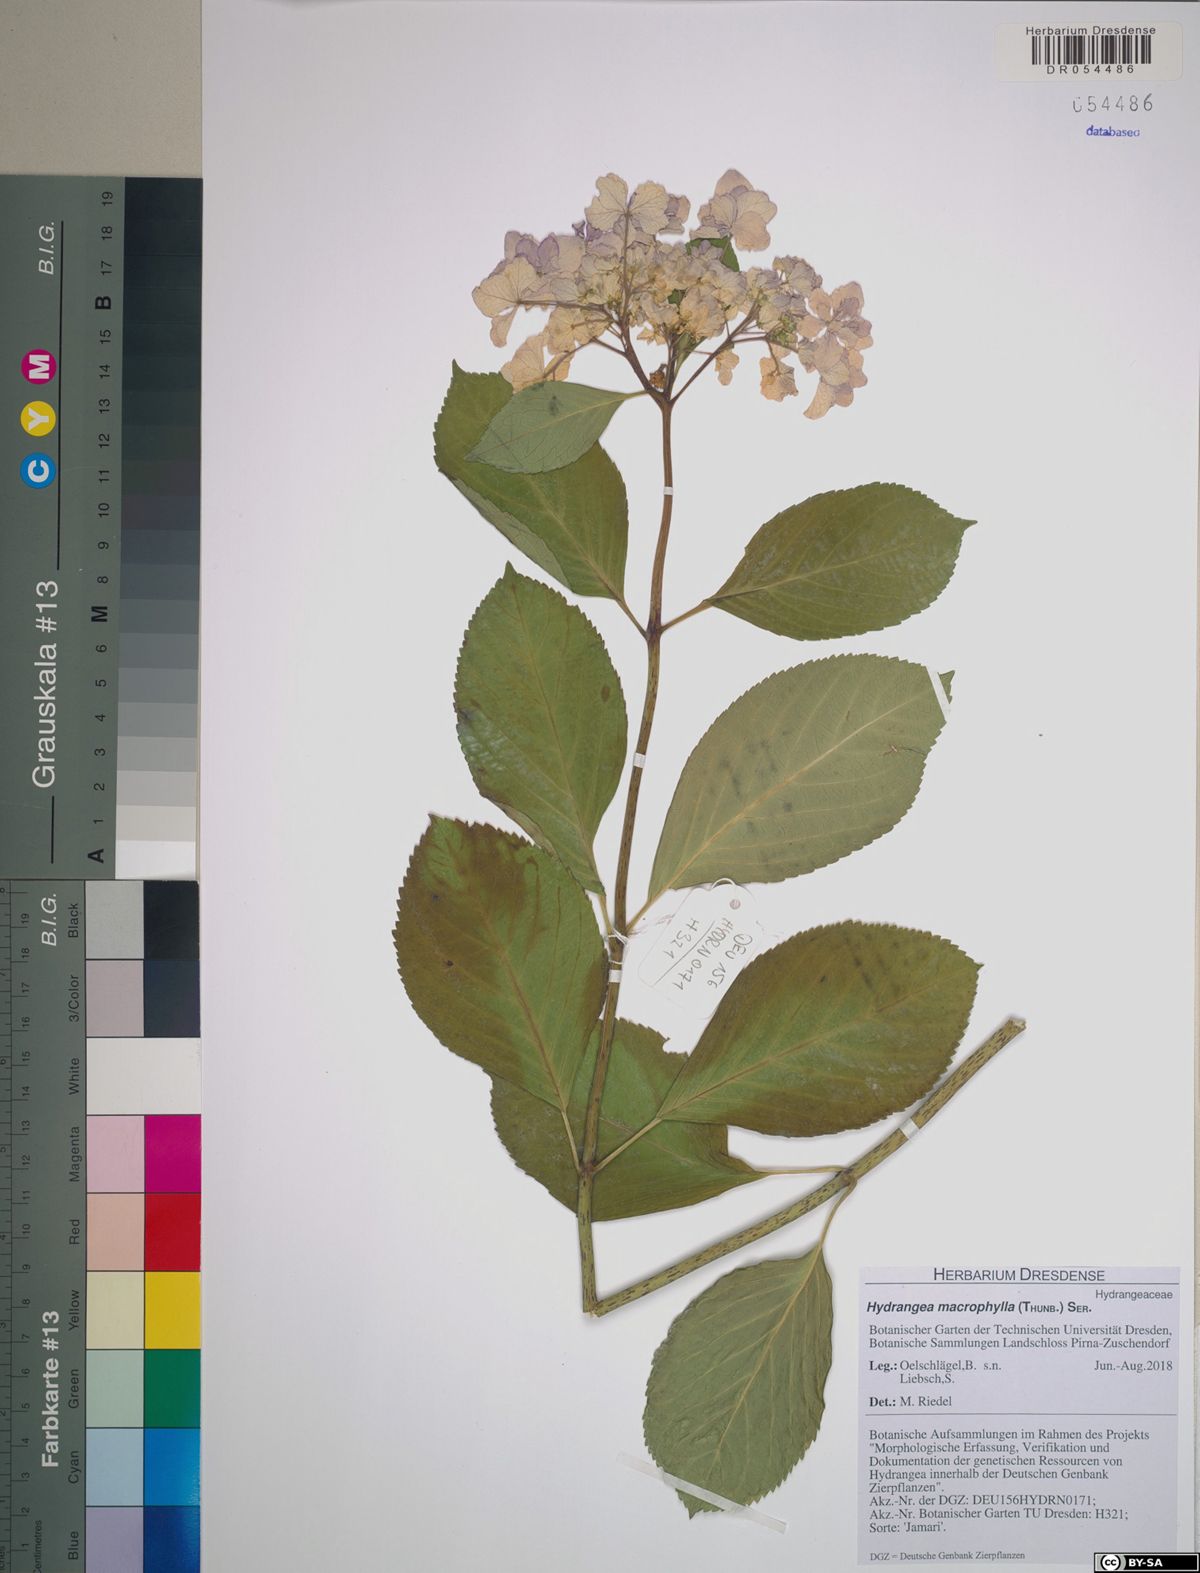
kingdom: Plantae
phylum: Tracheophyta
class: Magnoliopsida
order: Cornales
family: Hydrangeaceae
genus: Hydrangea
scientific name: Hydrangea macrophylla
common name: Hydrangea
